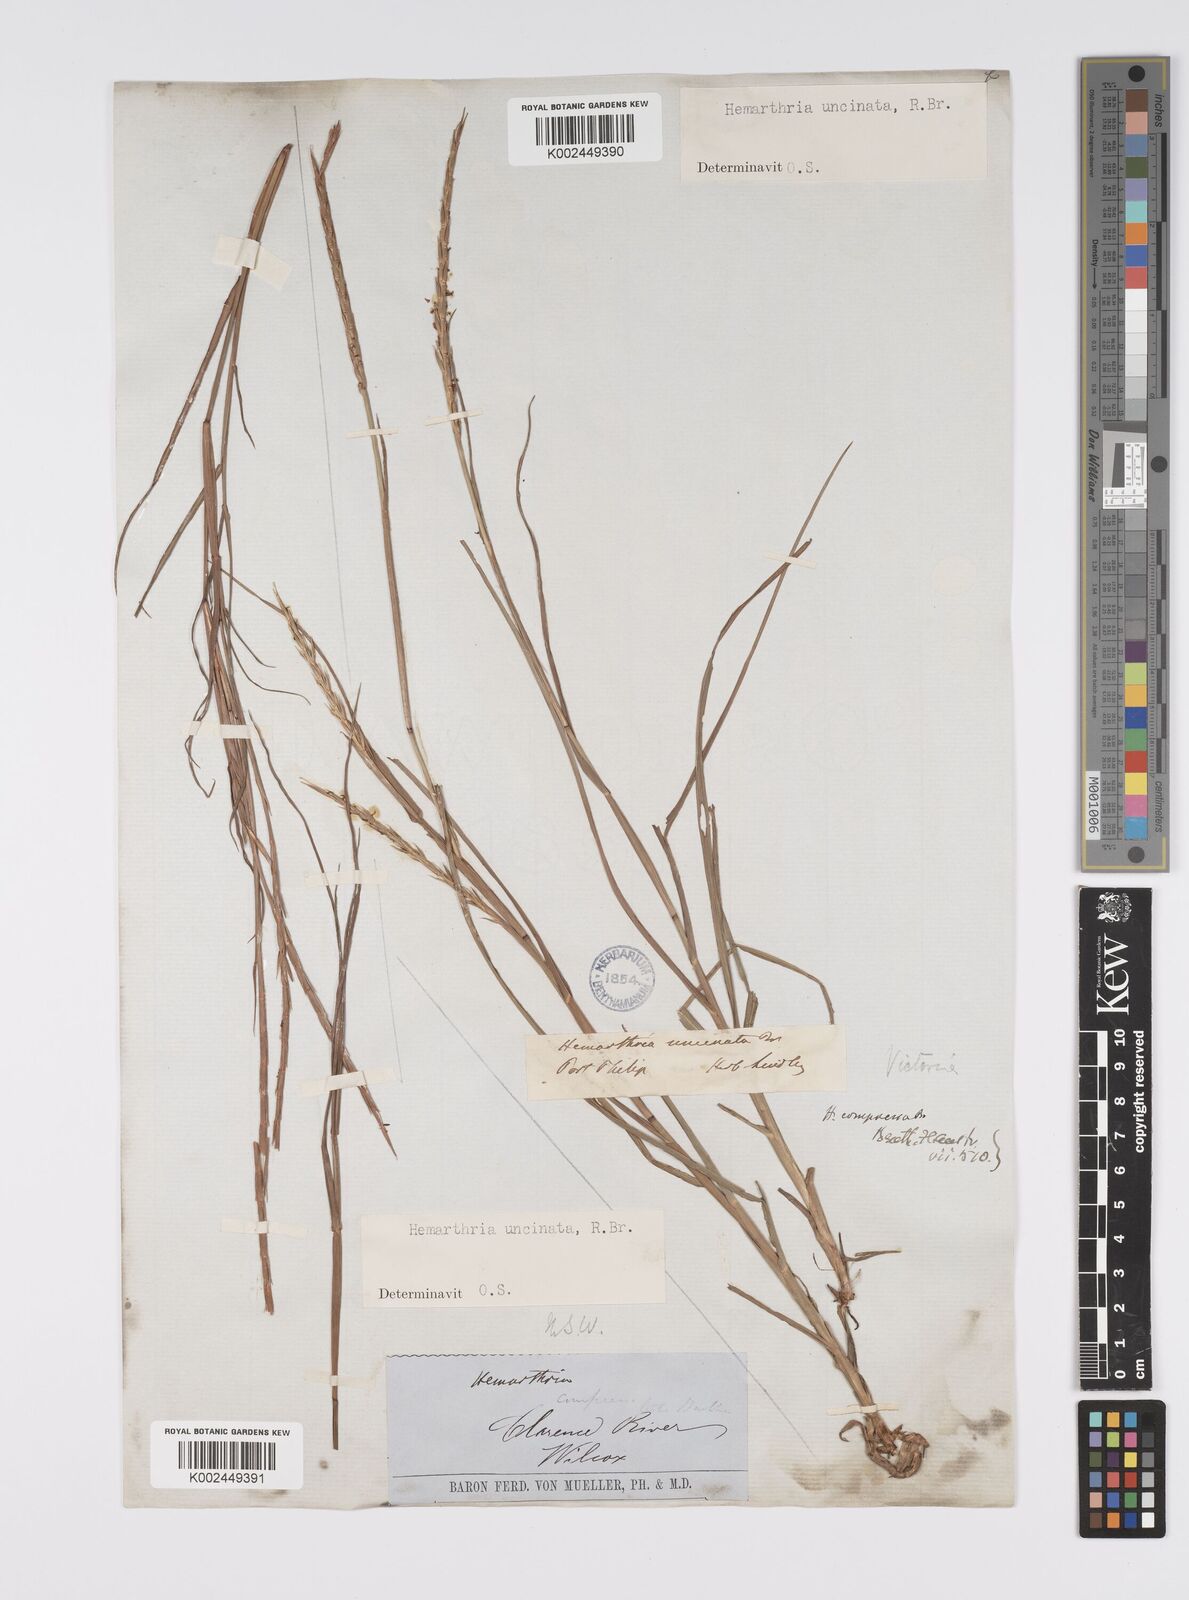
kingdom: Plantae
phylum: Tracheophyta
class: Liliopsida
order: Poales
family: Poaceae
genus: Hemarthria
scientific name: Hemarthria uncinata
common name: Matgrass
